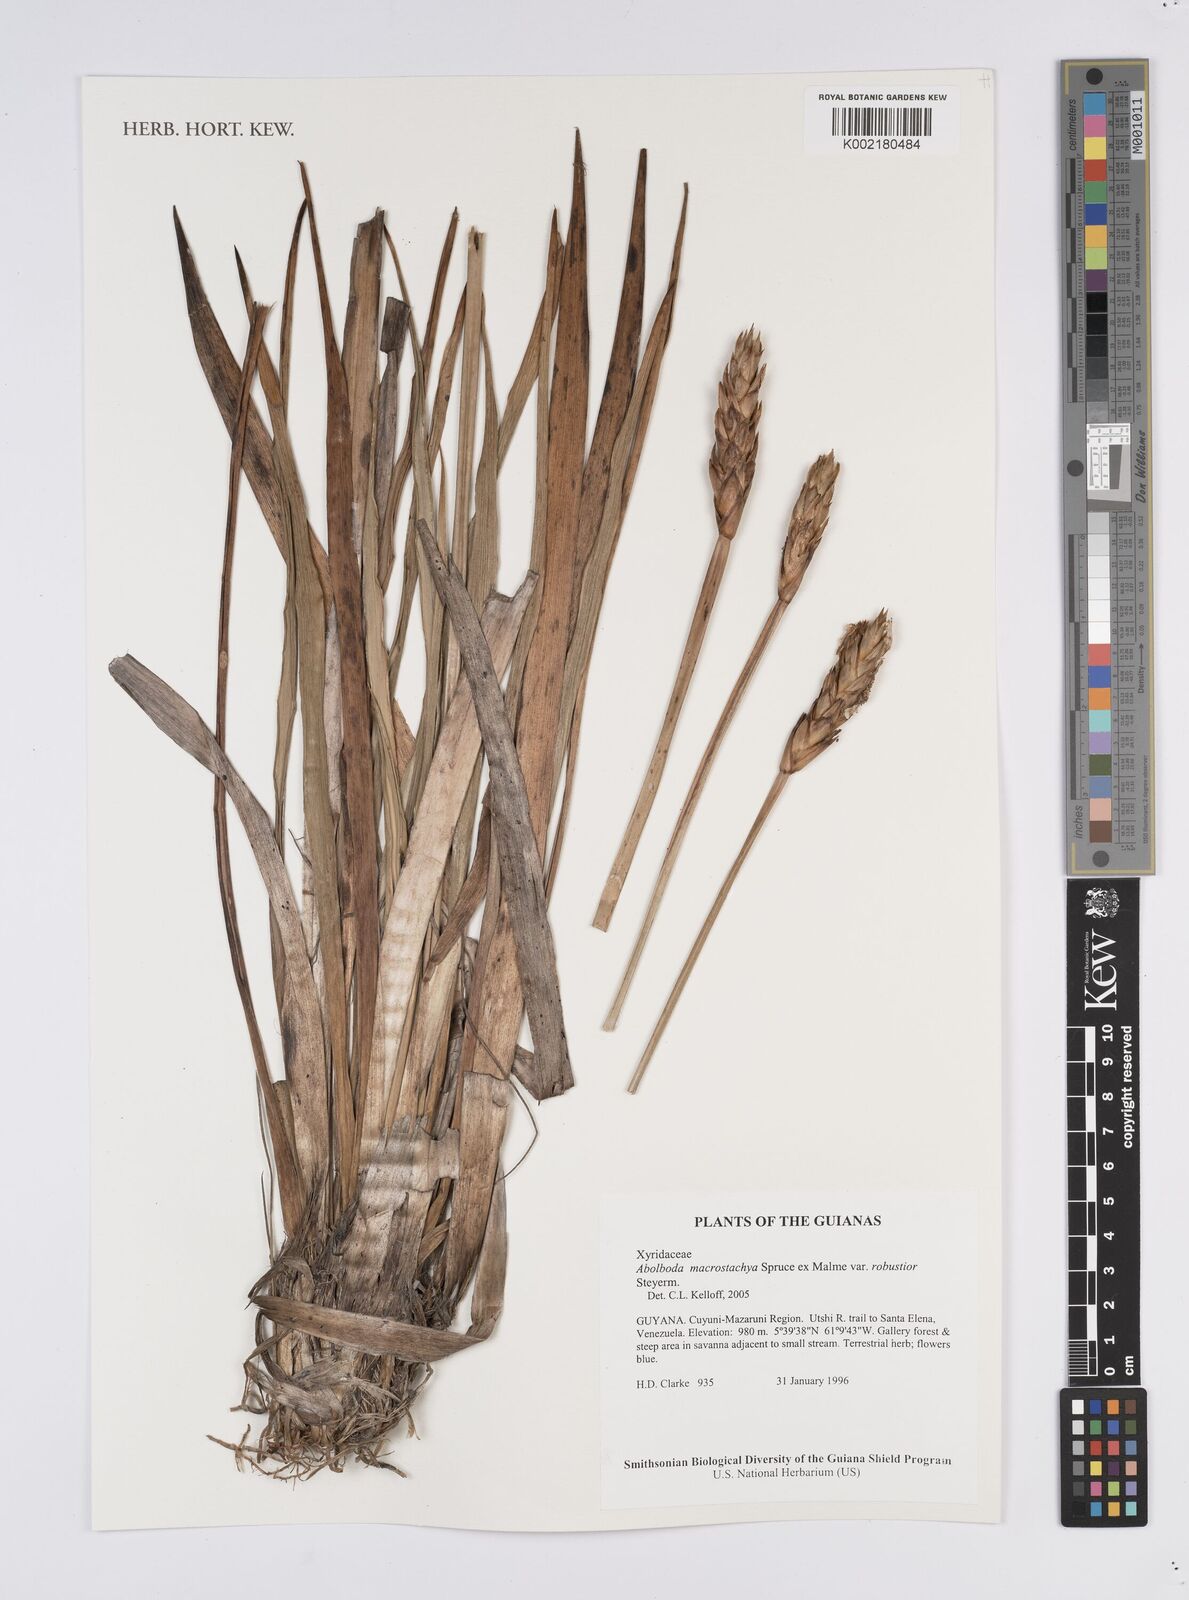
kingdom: Plantae
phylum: Tracheophyta
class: Liliopsida
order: Poales
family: Xyridaceae
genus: Abolboda
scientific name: Abolboda macrostachya
